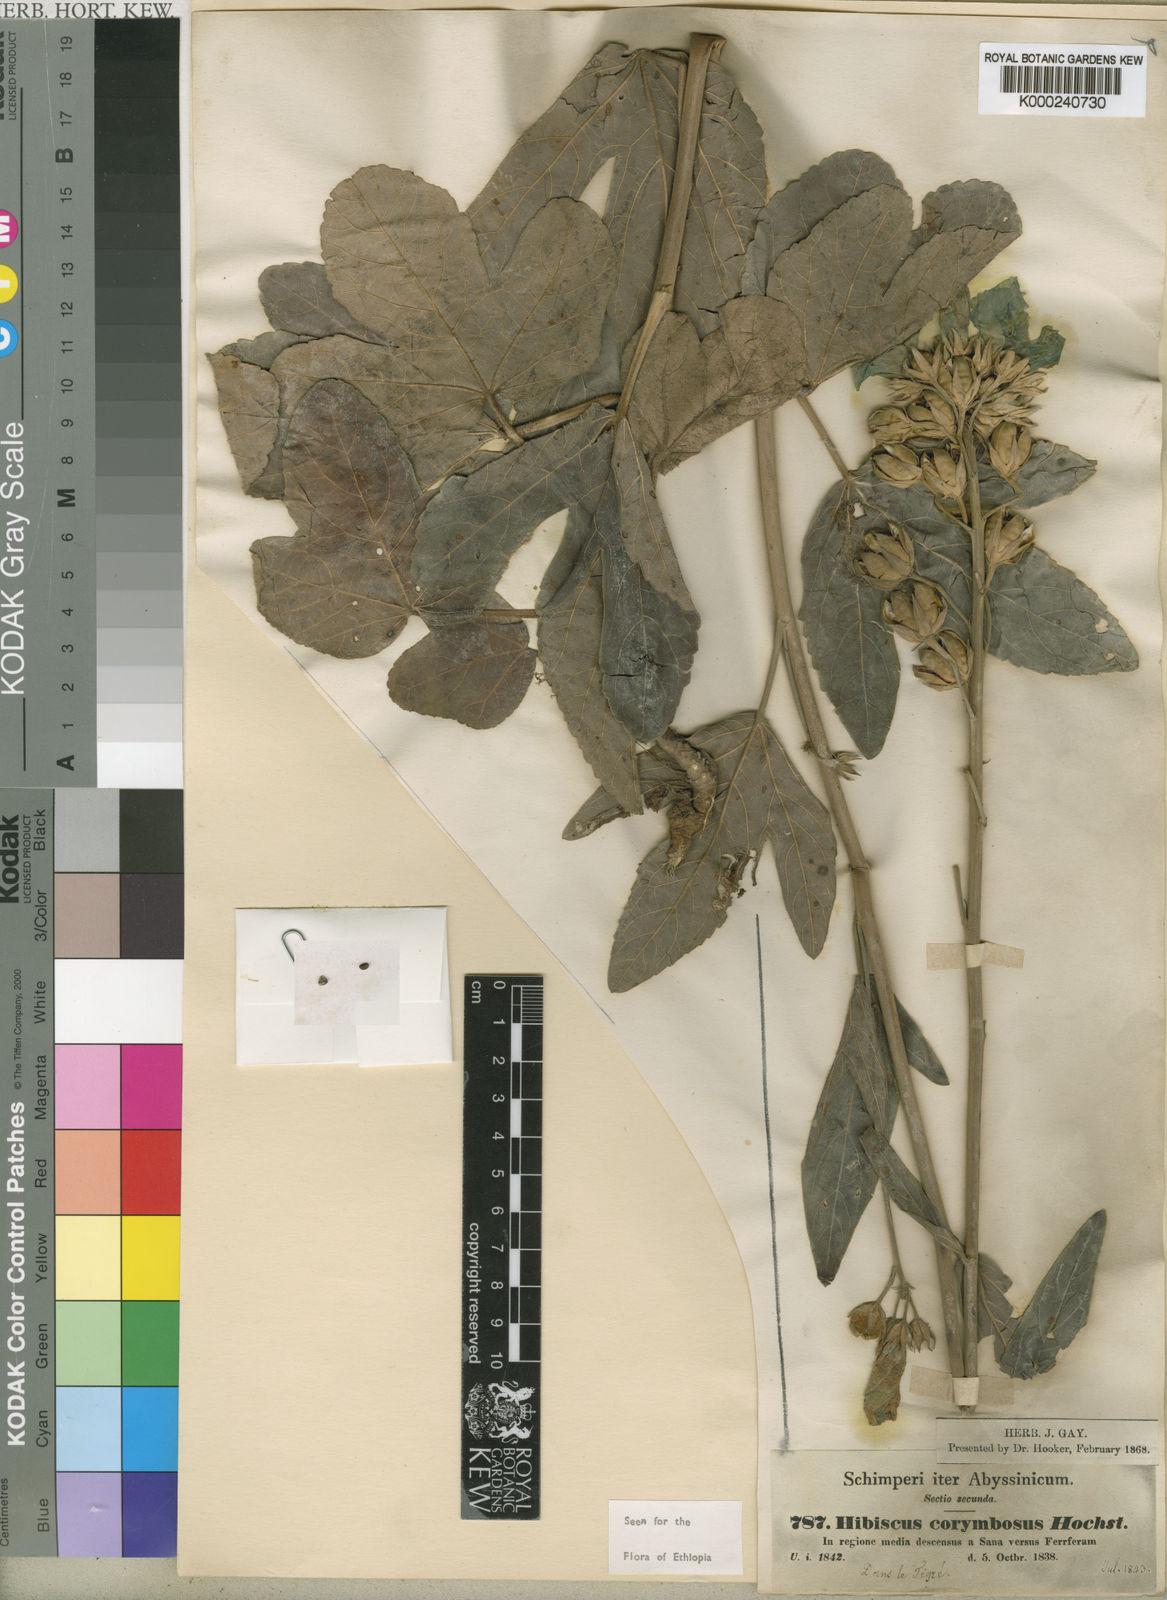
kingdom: Plantae
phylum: Tracheophyta
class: Magnoliopsida
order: Malvales
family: Malvaceae
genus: Hibiscus
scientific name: Hibiscus corymbosus
